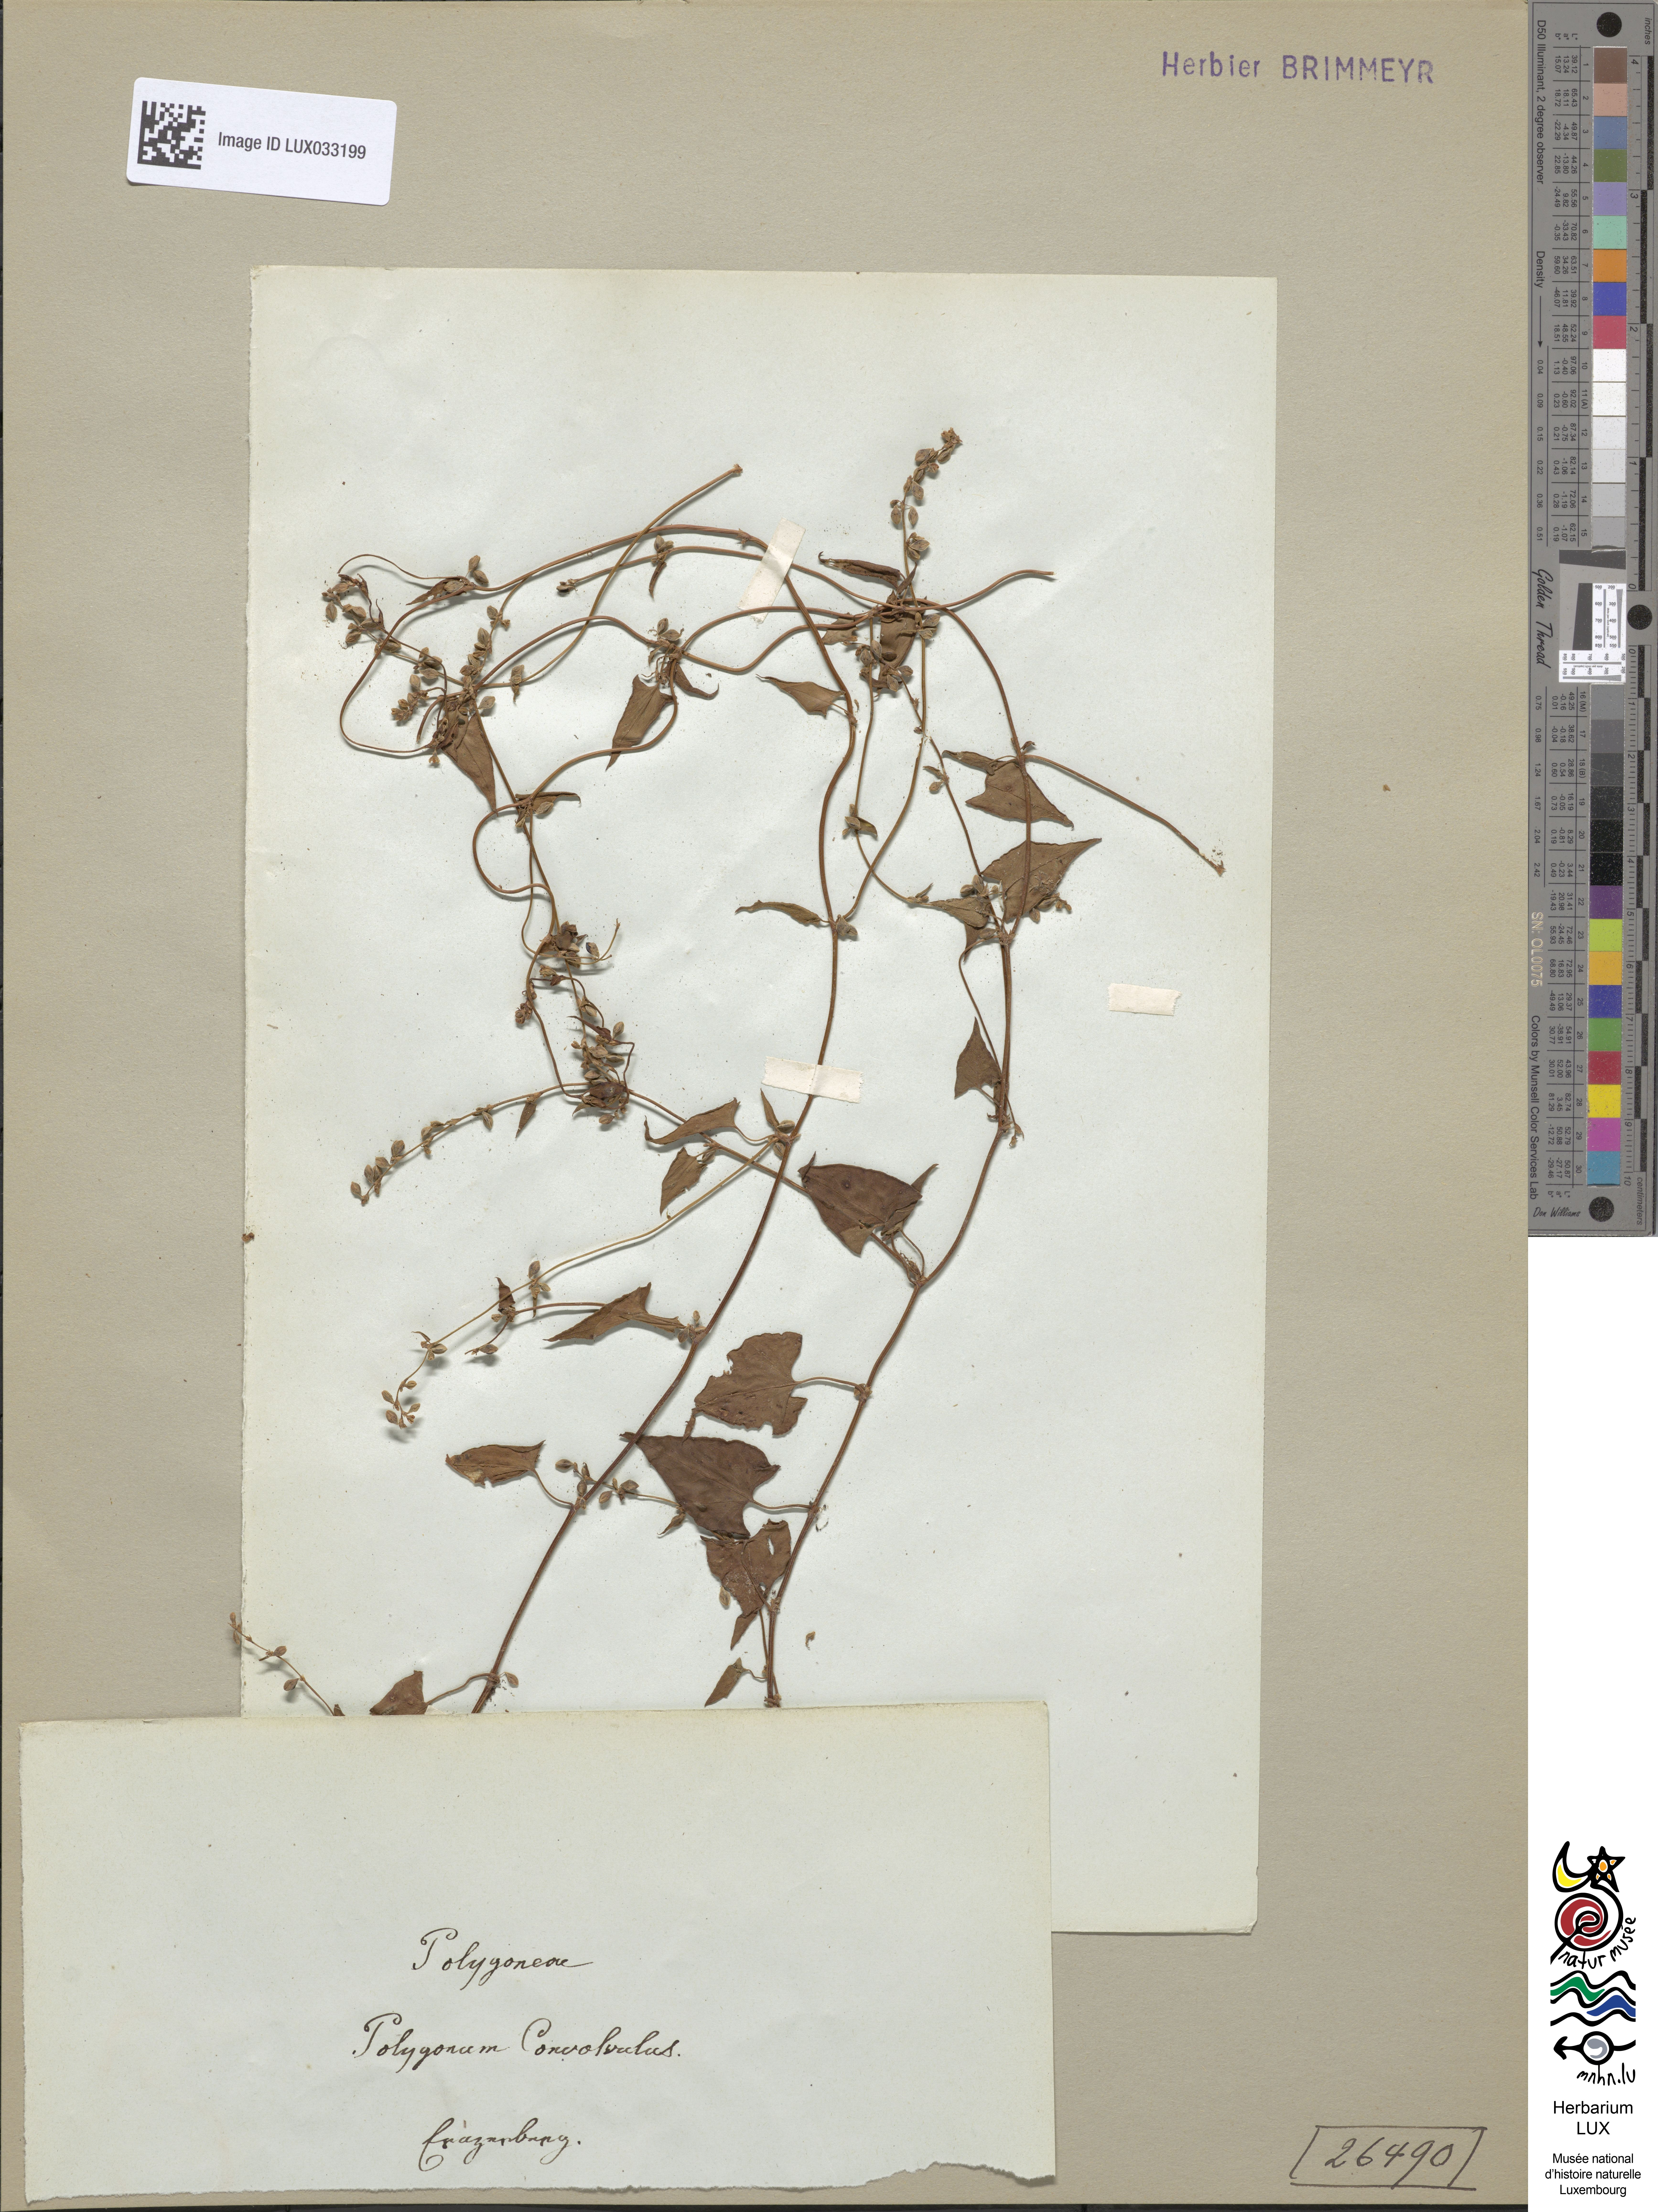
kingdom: Plantae
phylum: Tracheophyta
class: Magnoliopsida
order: Caryophyllales
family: Polygonaceae
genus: Fallopia
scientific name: Fallopia convolvulus
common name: Black bindweed
